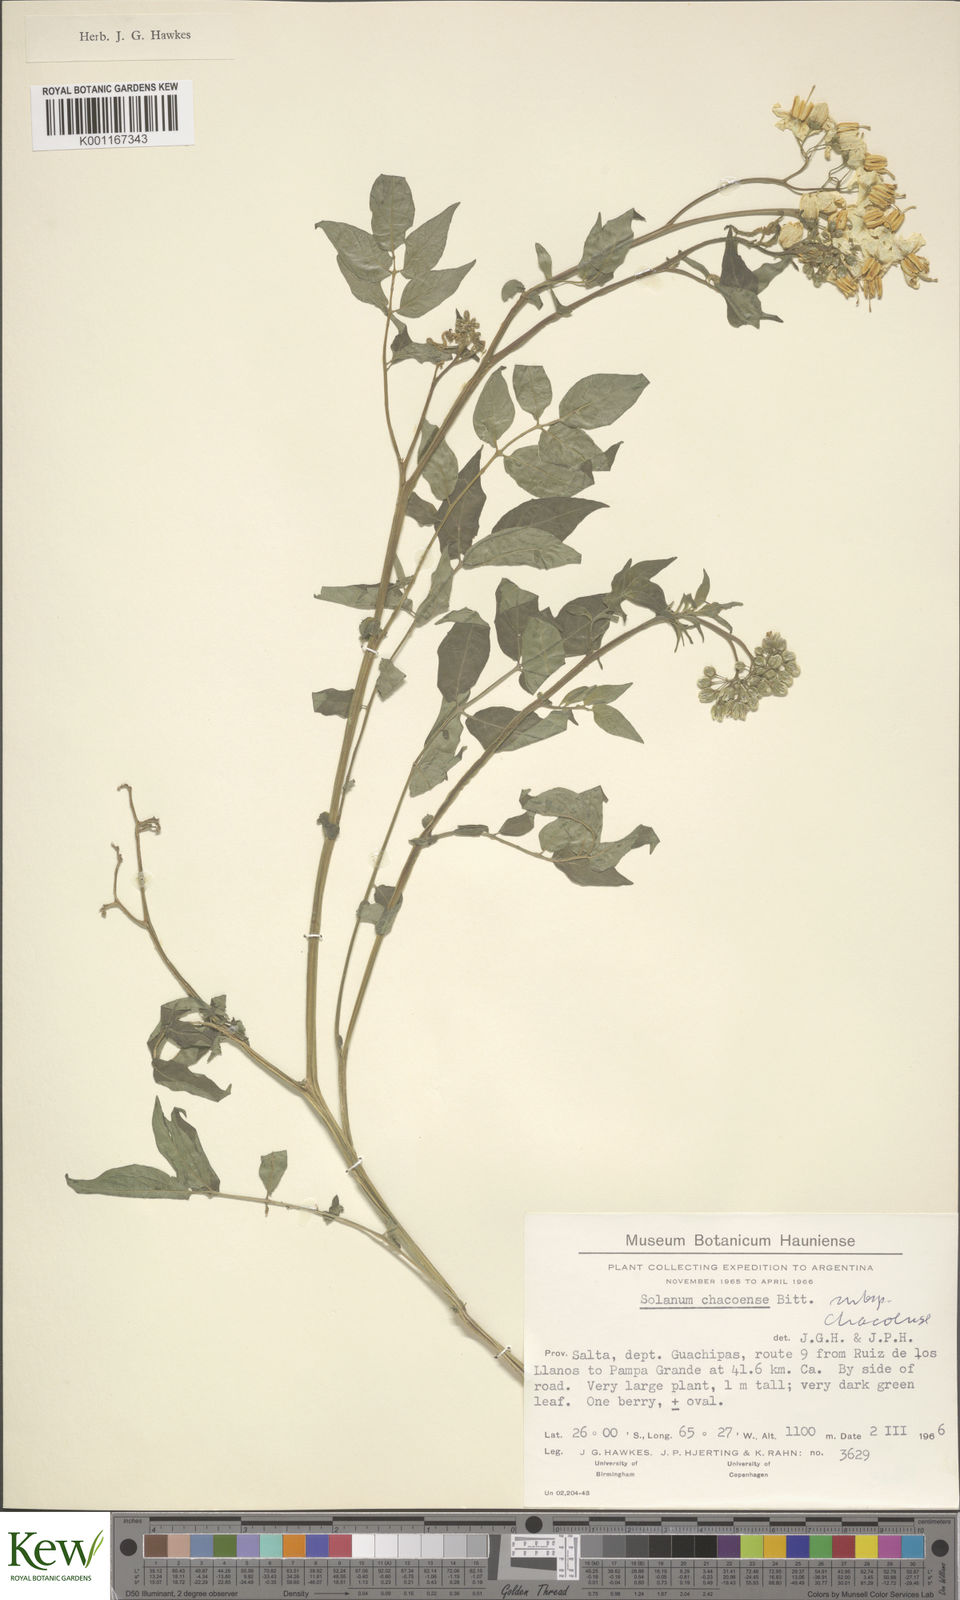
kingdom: Plantae
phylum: Tracheophyta
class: Magnoliopsida
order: Solanales
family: Solanaceae
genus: Solanum
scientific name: Solanum chacoense
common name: Chaco potato
